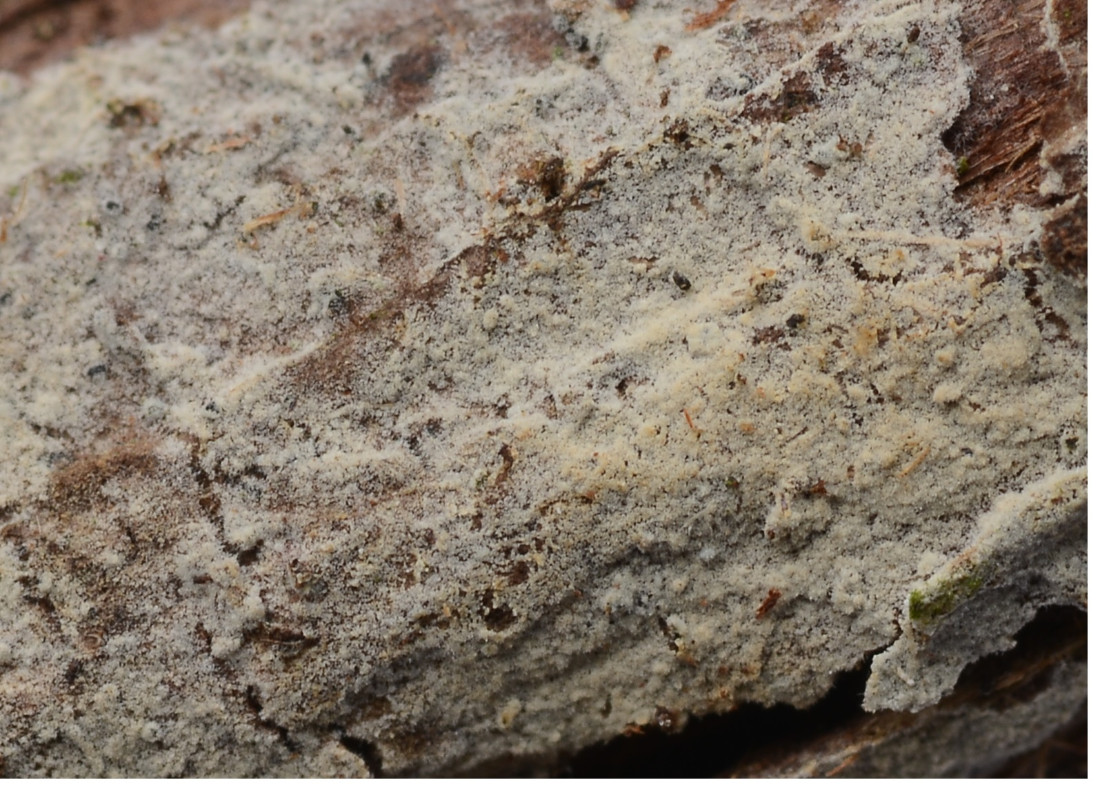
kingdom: Fungi
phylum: Basidiomycota
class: Agaricomycetes
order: Hymenochaetales
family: Hyphodontiaceae
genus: Hyphodontia
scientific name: Hyphodontia alutaria
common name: flaskerenser-nålehinde
